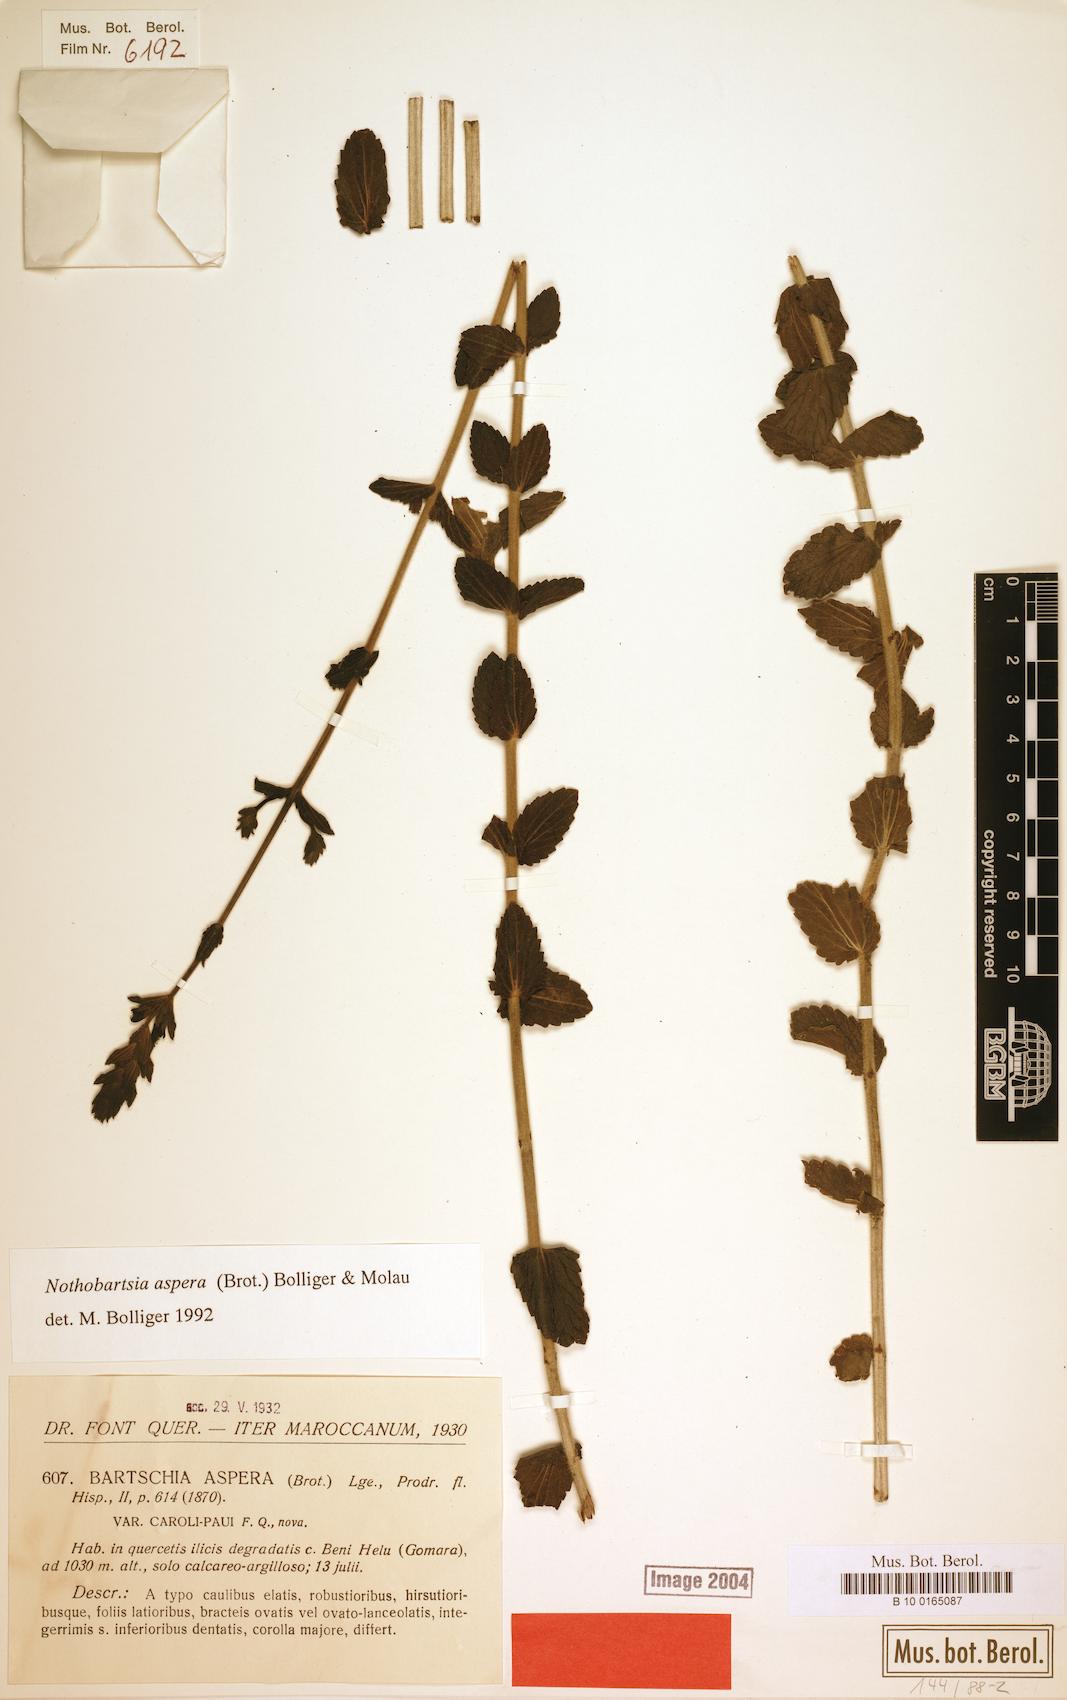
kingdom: Plantae
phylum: Tracheophyta
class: Magnoliopsida
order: Lamiales
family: Orobanchaceae
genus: Nothobartsia
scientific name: Nothobartsia asperrima
